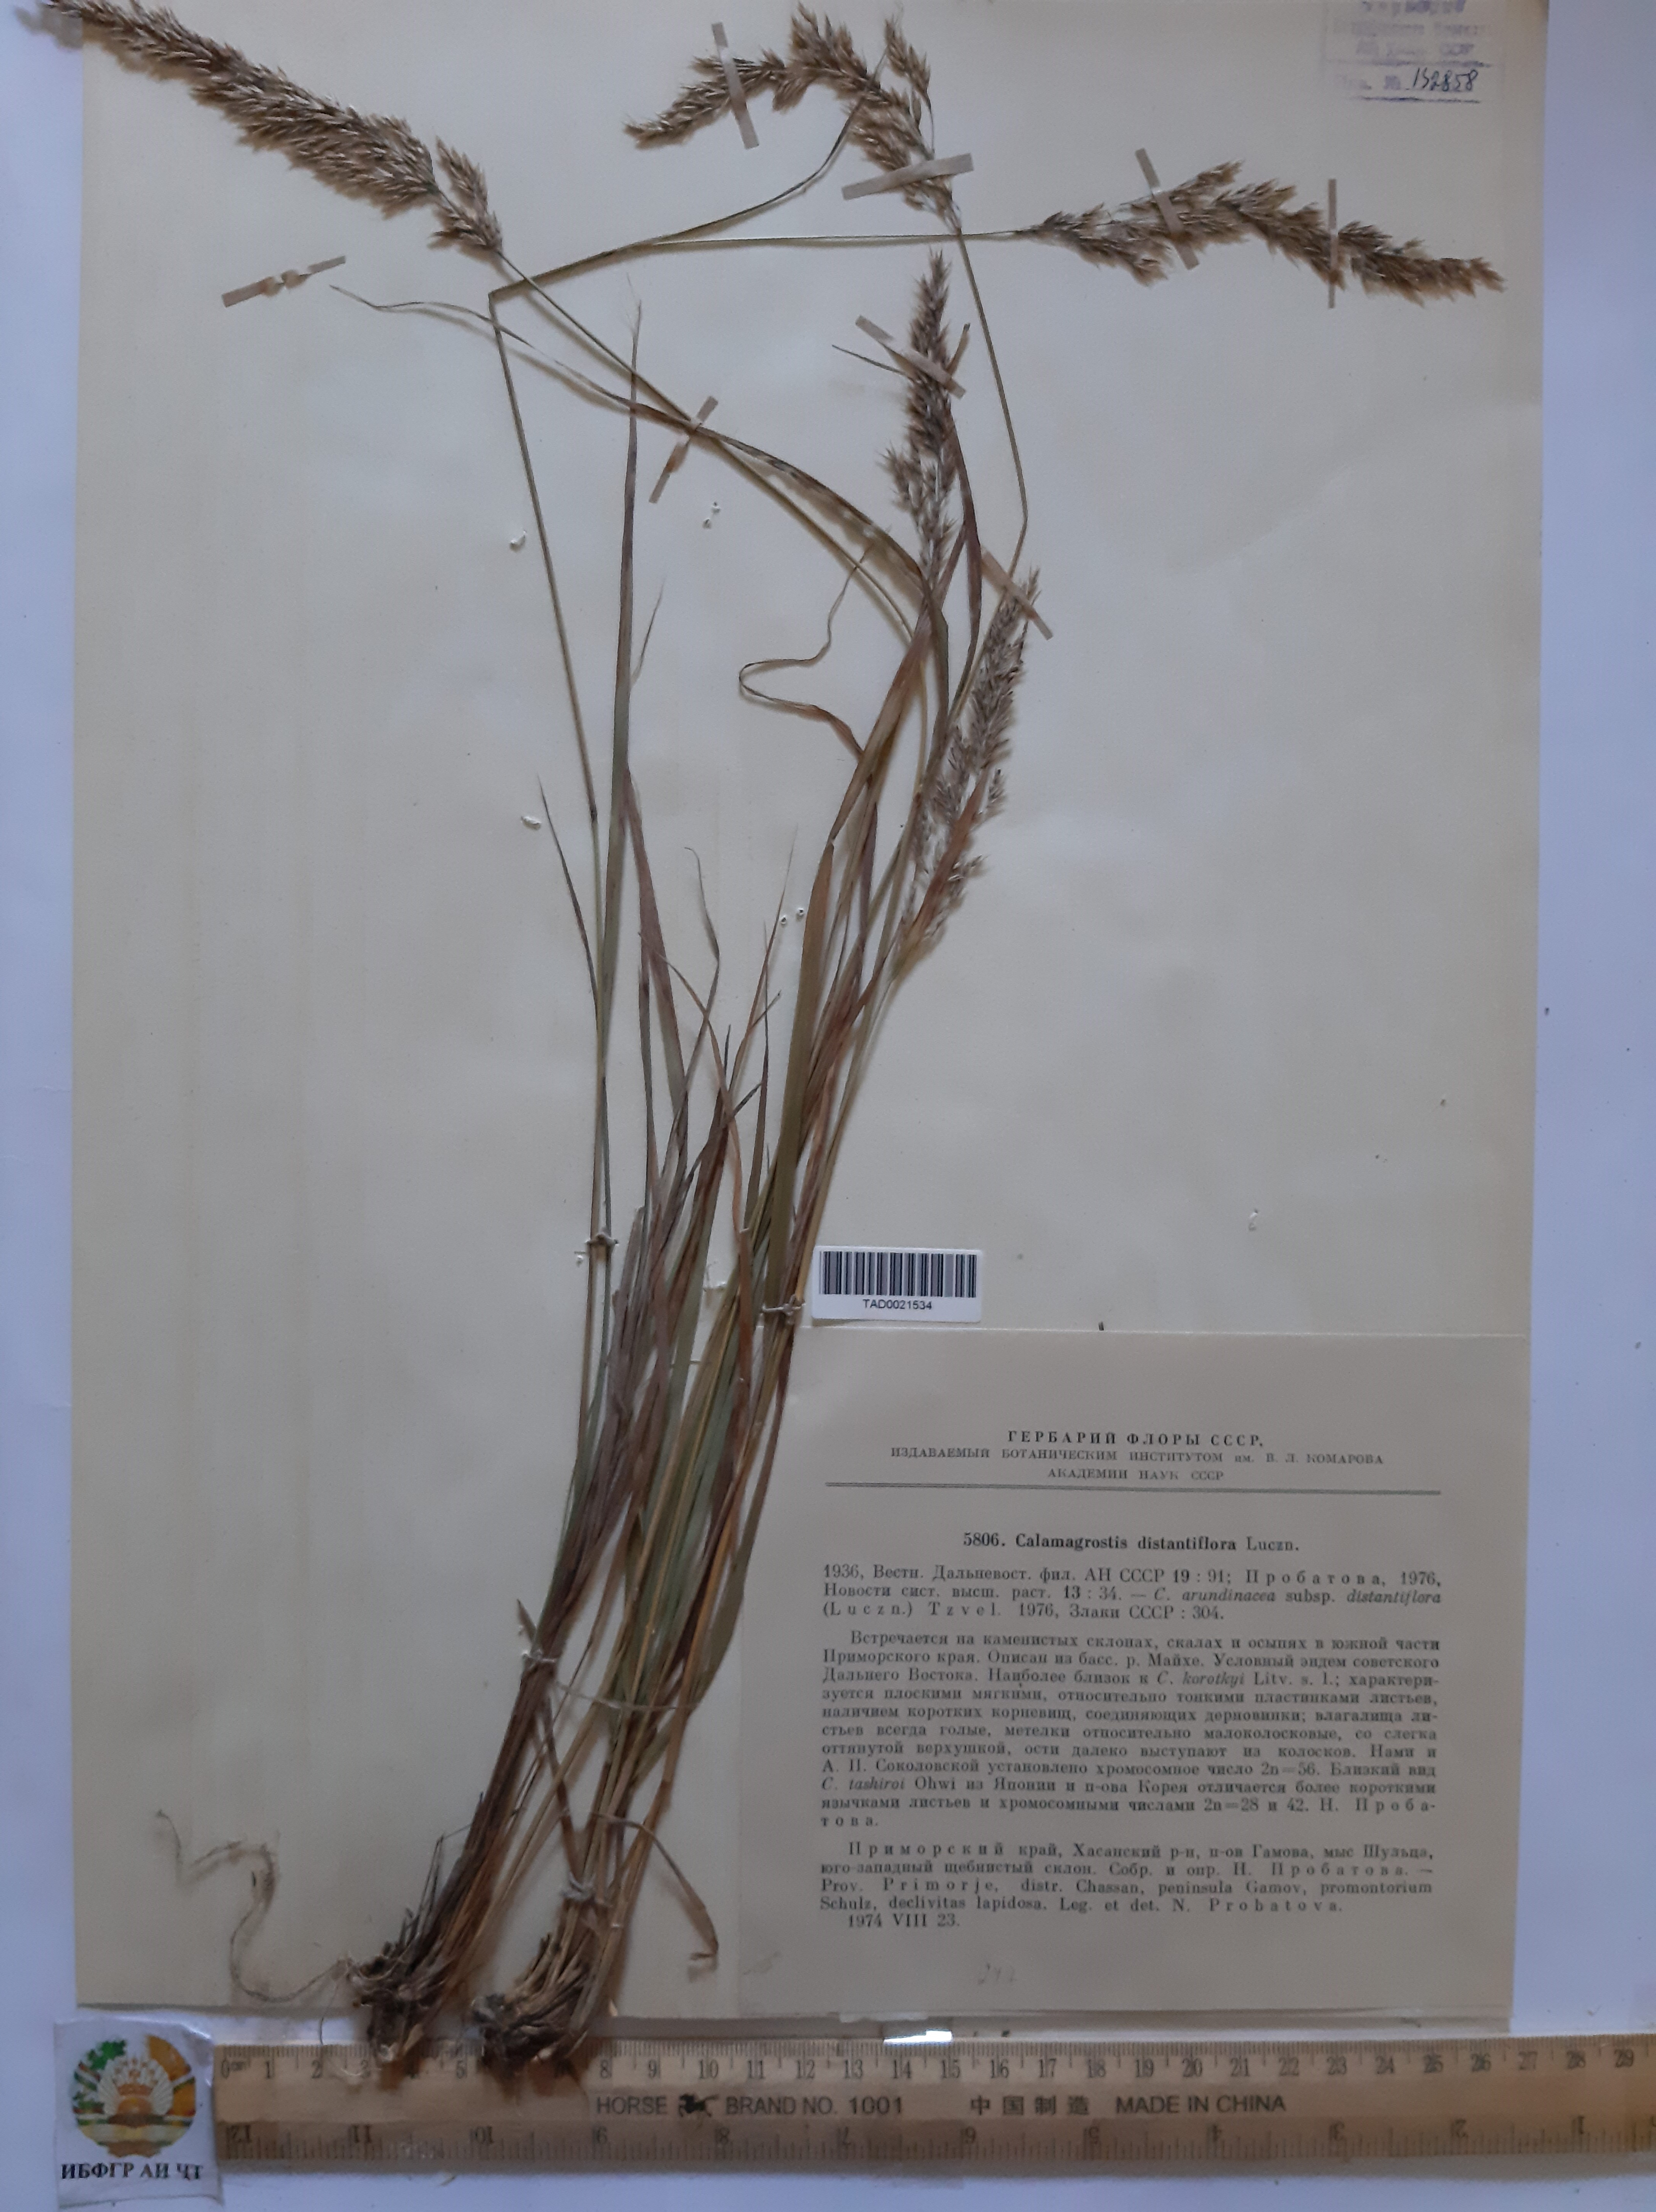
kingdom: Plantae
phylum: Tracheophyta
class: Liliopsida
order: Poales
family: Poaceae
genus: Calamagrostis
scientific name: Calamagrostis arundinacea
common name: Metskastik
